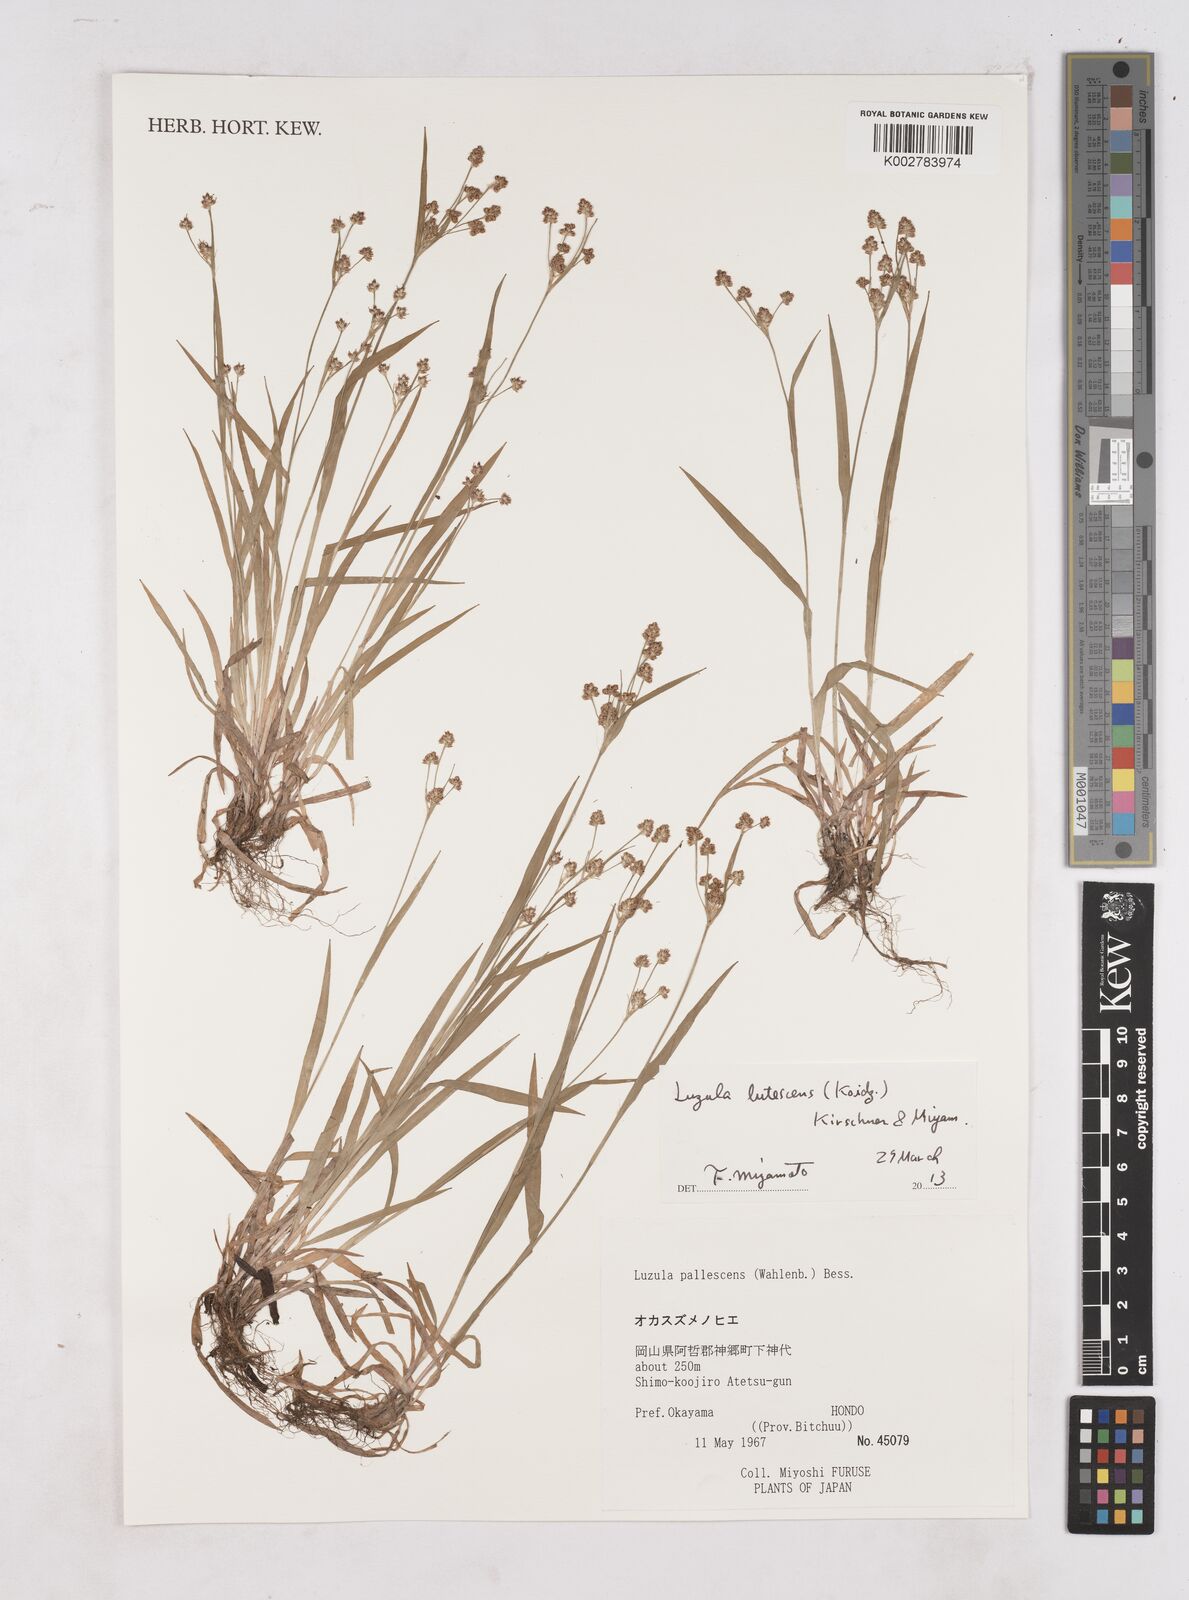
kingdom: Plantae
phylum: Tracheophyta
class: Liliopsida
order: Poales
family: Juncaceae
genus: Luzula
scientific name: Luzula pallescens
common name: Fen wood-rush
